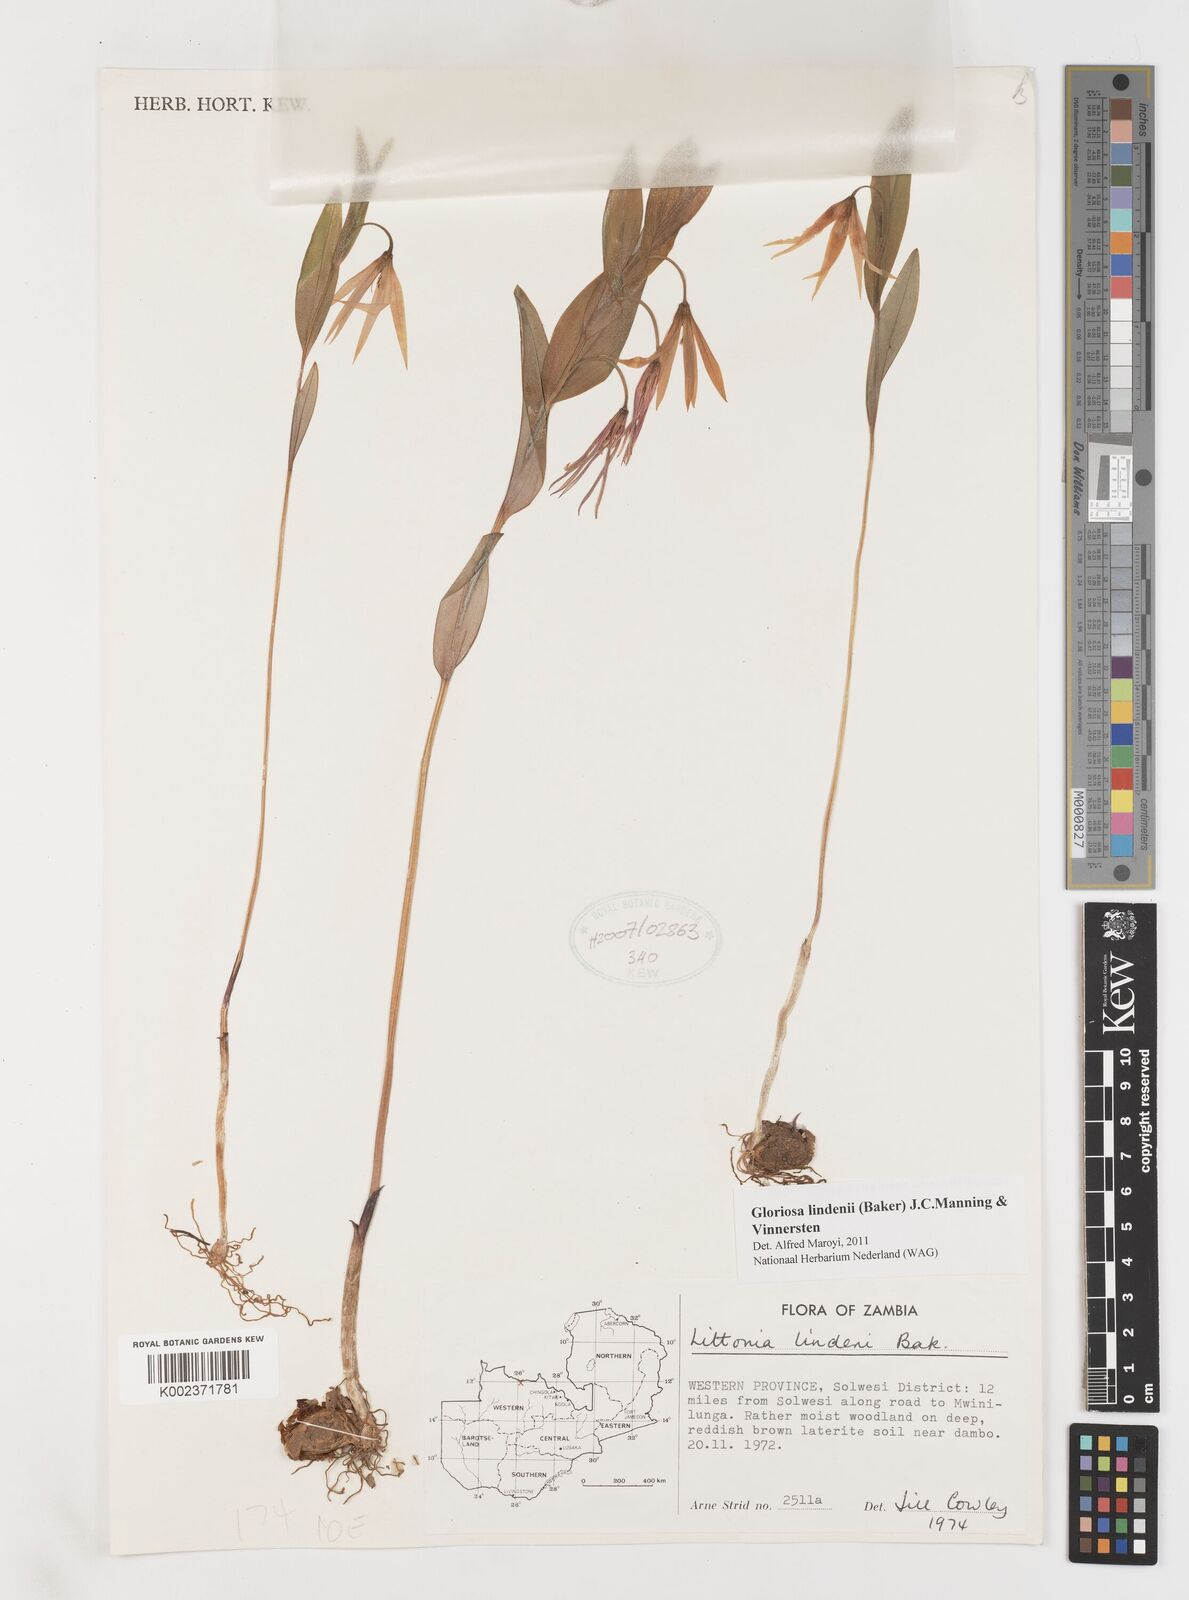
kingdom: Plantae
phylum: Tracheophyta
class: Liliopsida
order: Liliales
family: Colchicaceae
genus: Gloriosa
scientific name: Gloriosa lindenii
